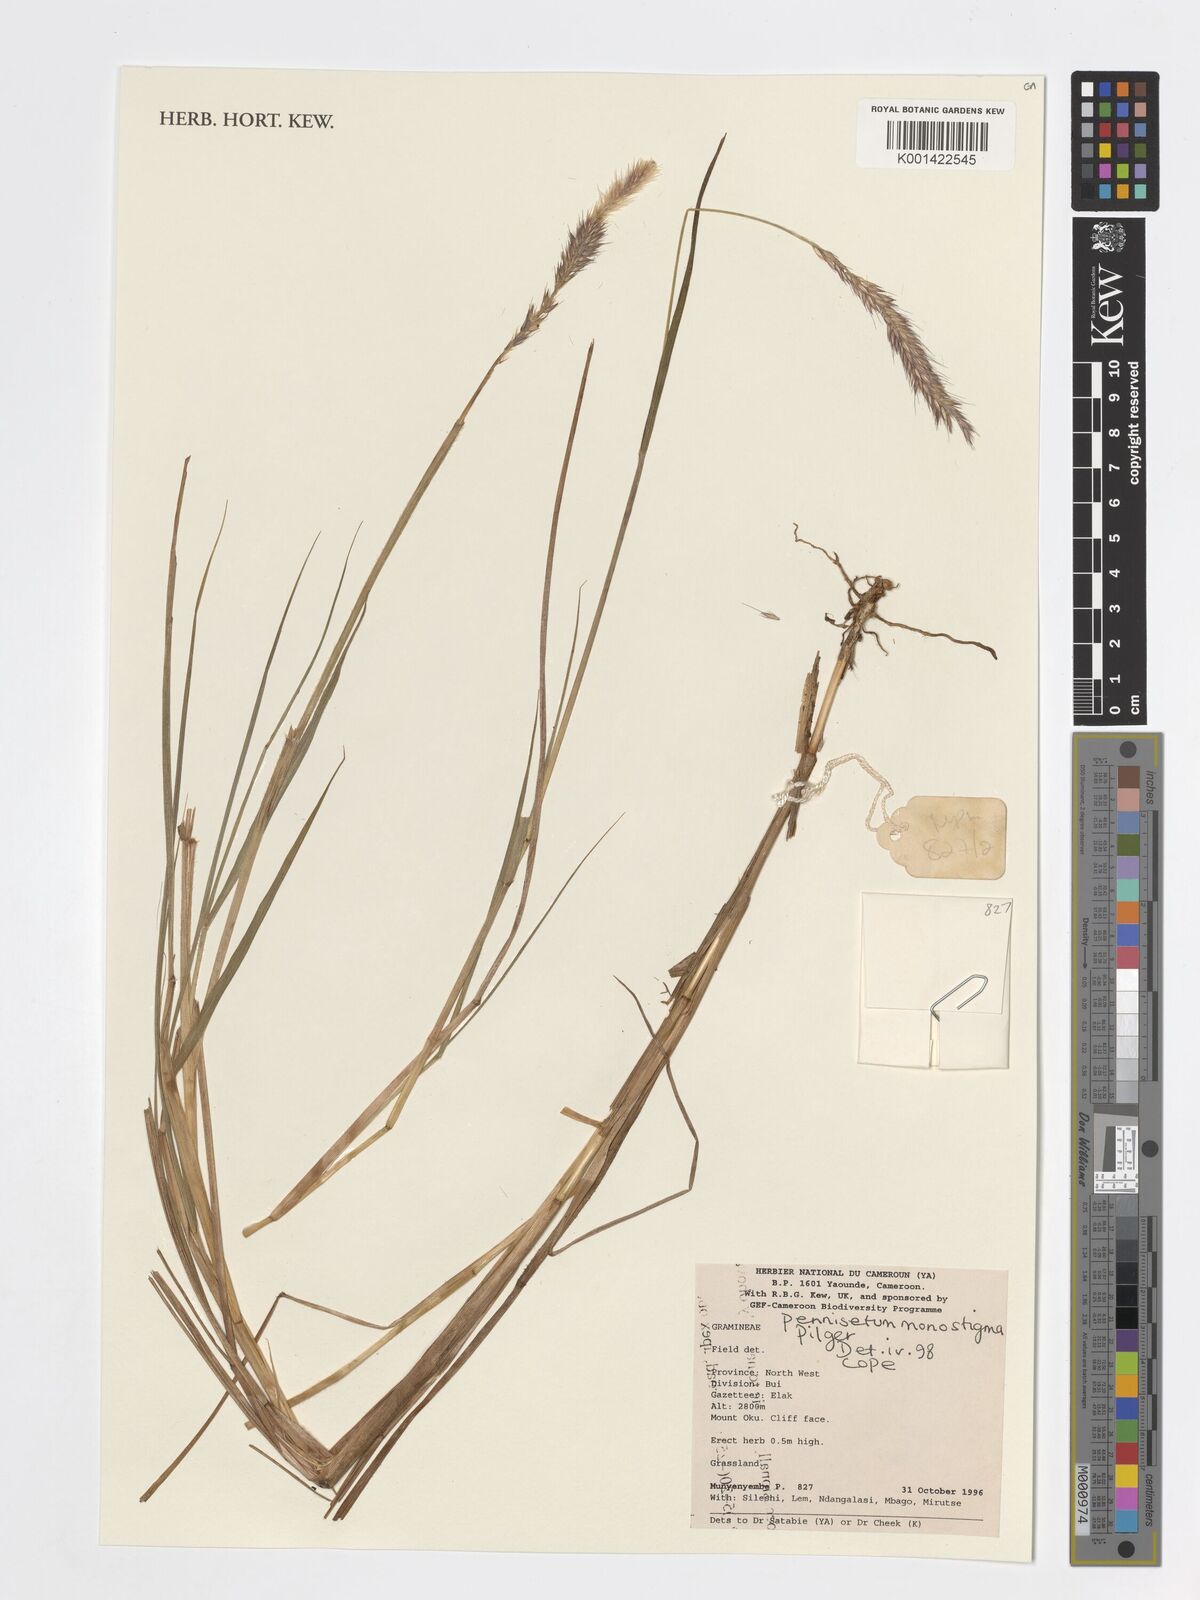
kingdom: Plantae
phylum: Tracheophyta
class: Liliopsida
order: Poales
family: Poaceae
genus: Cenchrus
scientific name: Cenchrus monostigma
